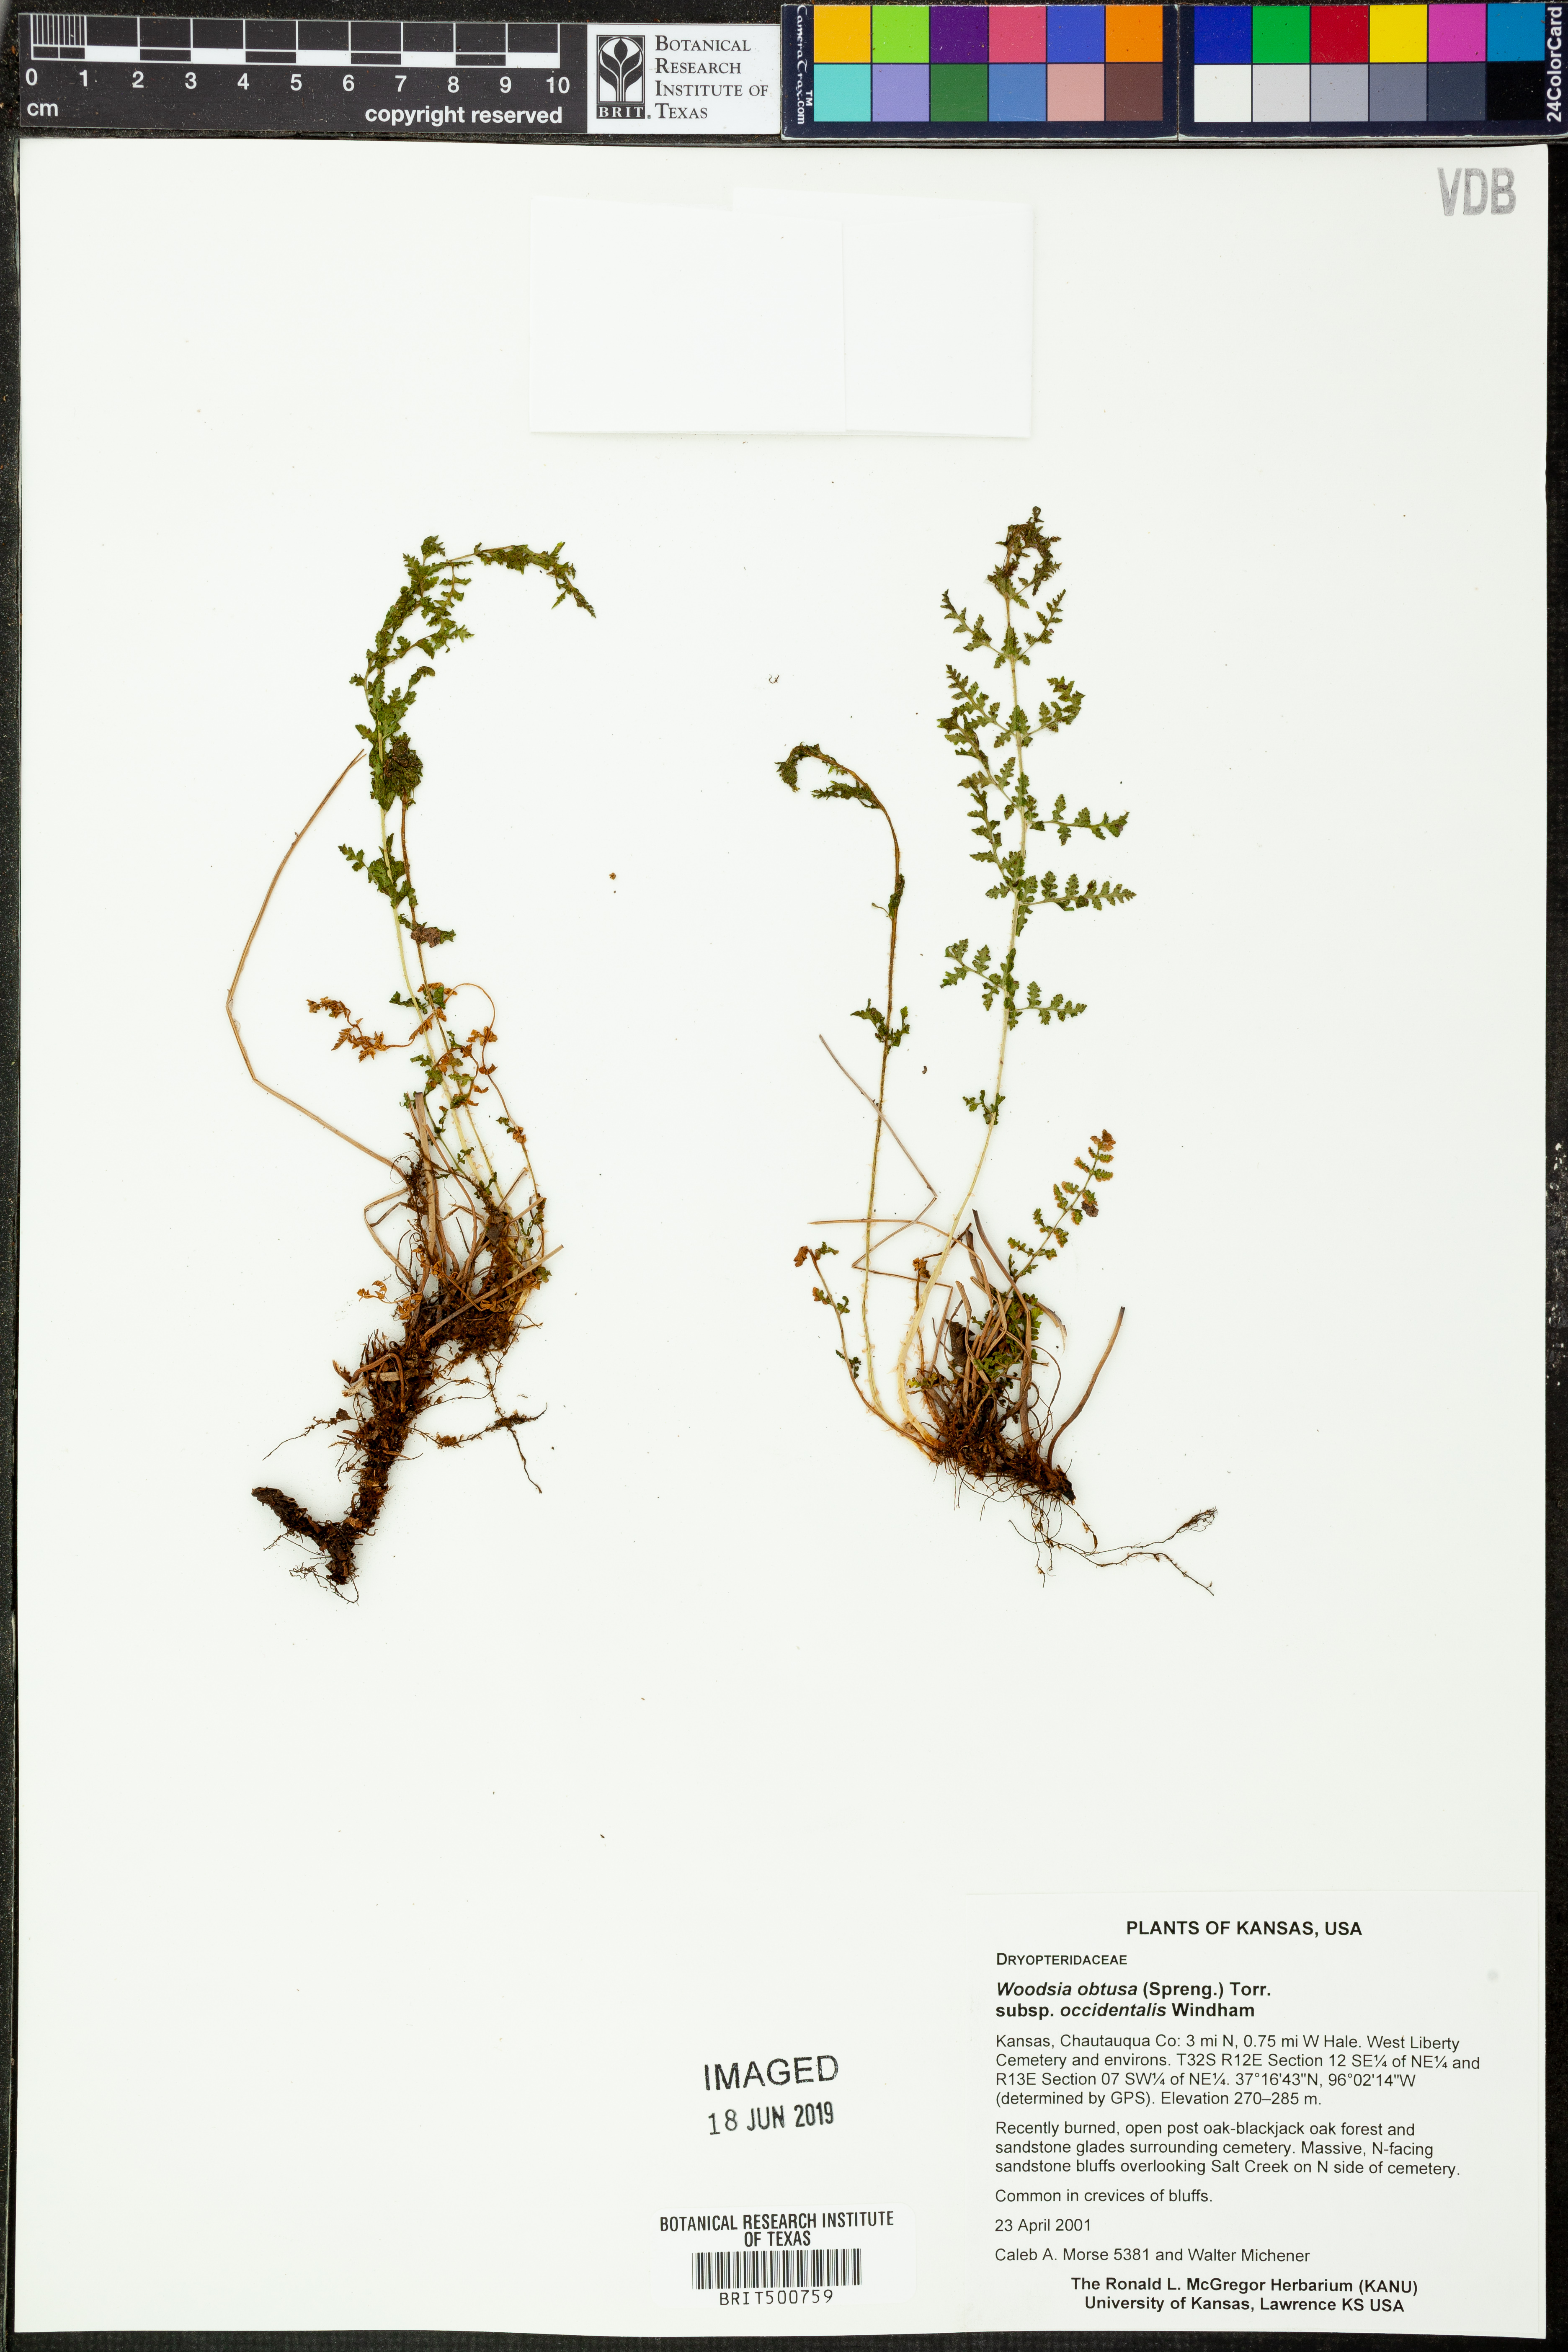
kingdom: Plantae
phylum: Tracheophyta
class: Polypodiopsida
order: Polypodiales
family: Woodsiaceae
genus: Physematium
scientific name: Physematium obtusum
